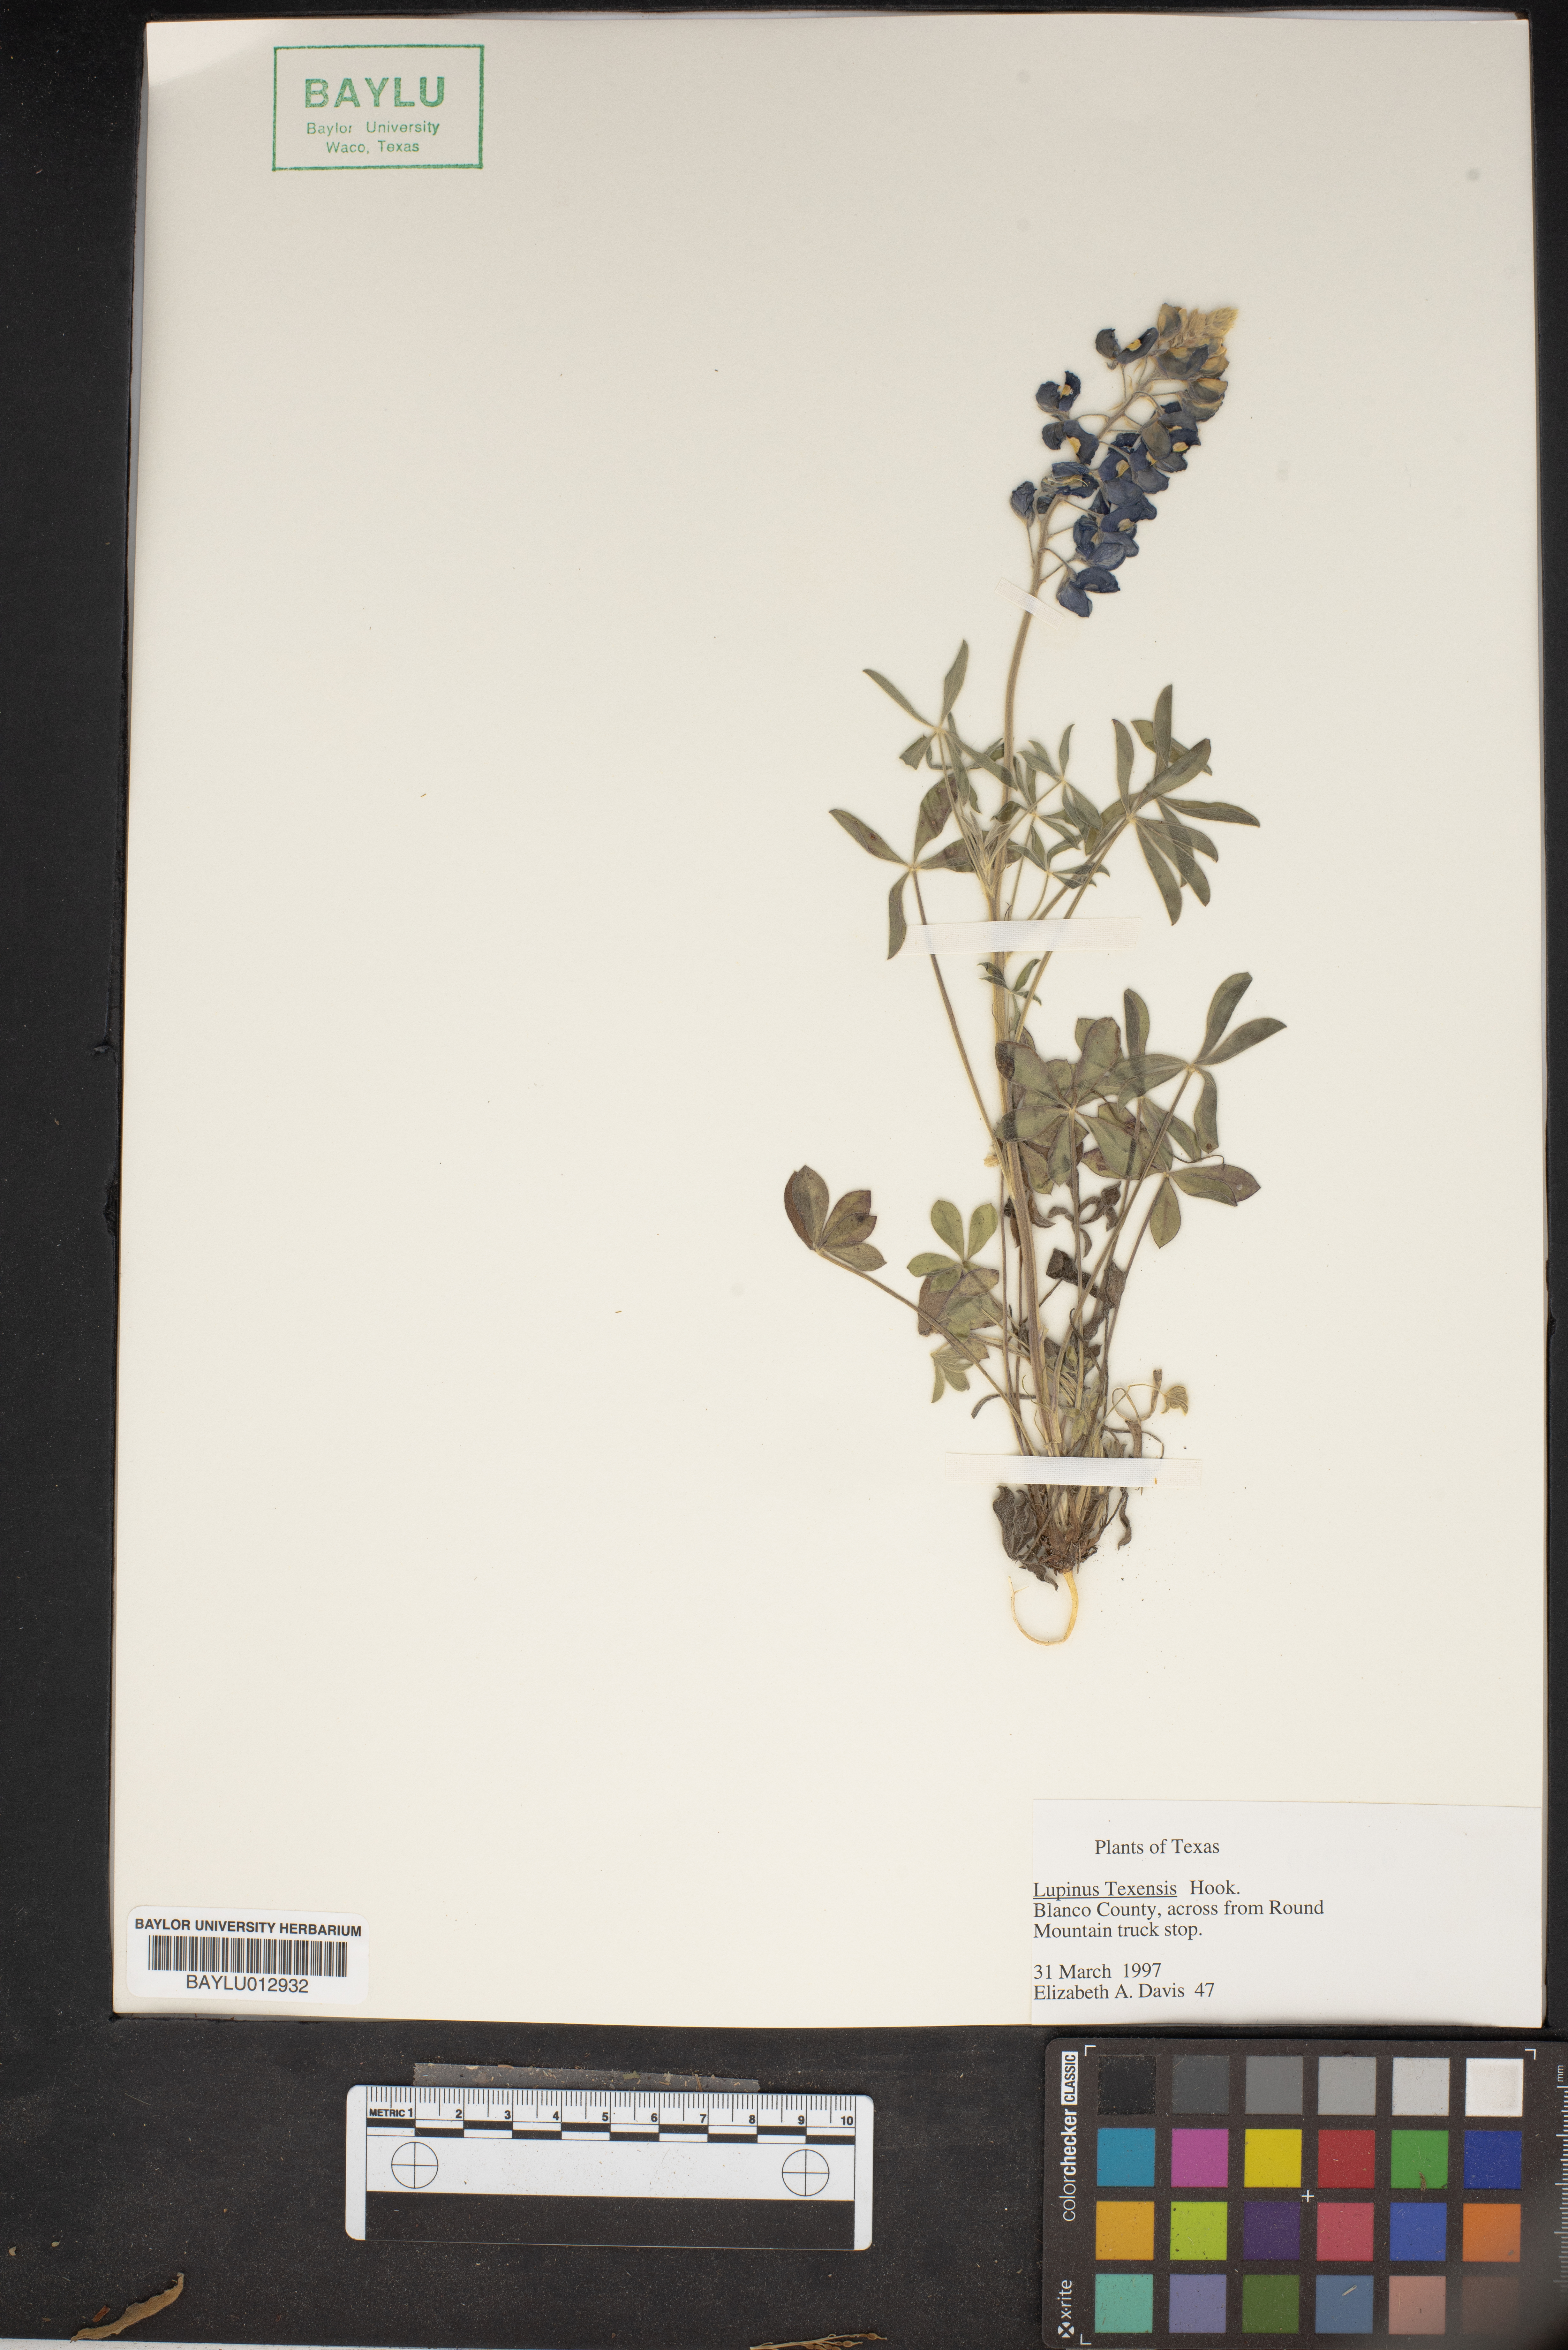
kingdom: Plantae
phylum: Tracheophyta
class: Magnoliopsida
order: Fabales
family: Fabaceae
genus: Lupinus
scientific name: Lupinus texensis
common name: Texas bluebonnet
